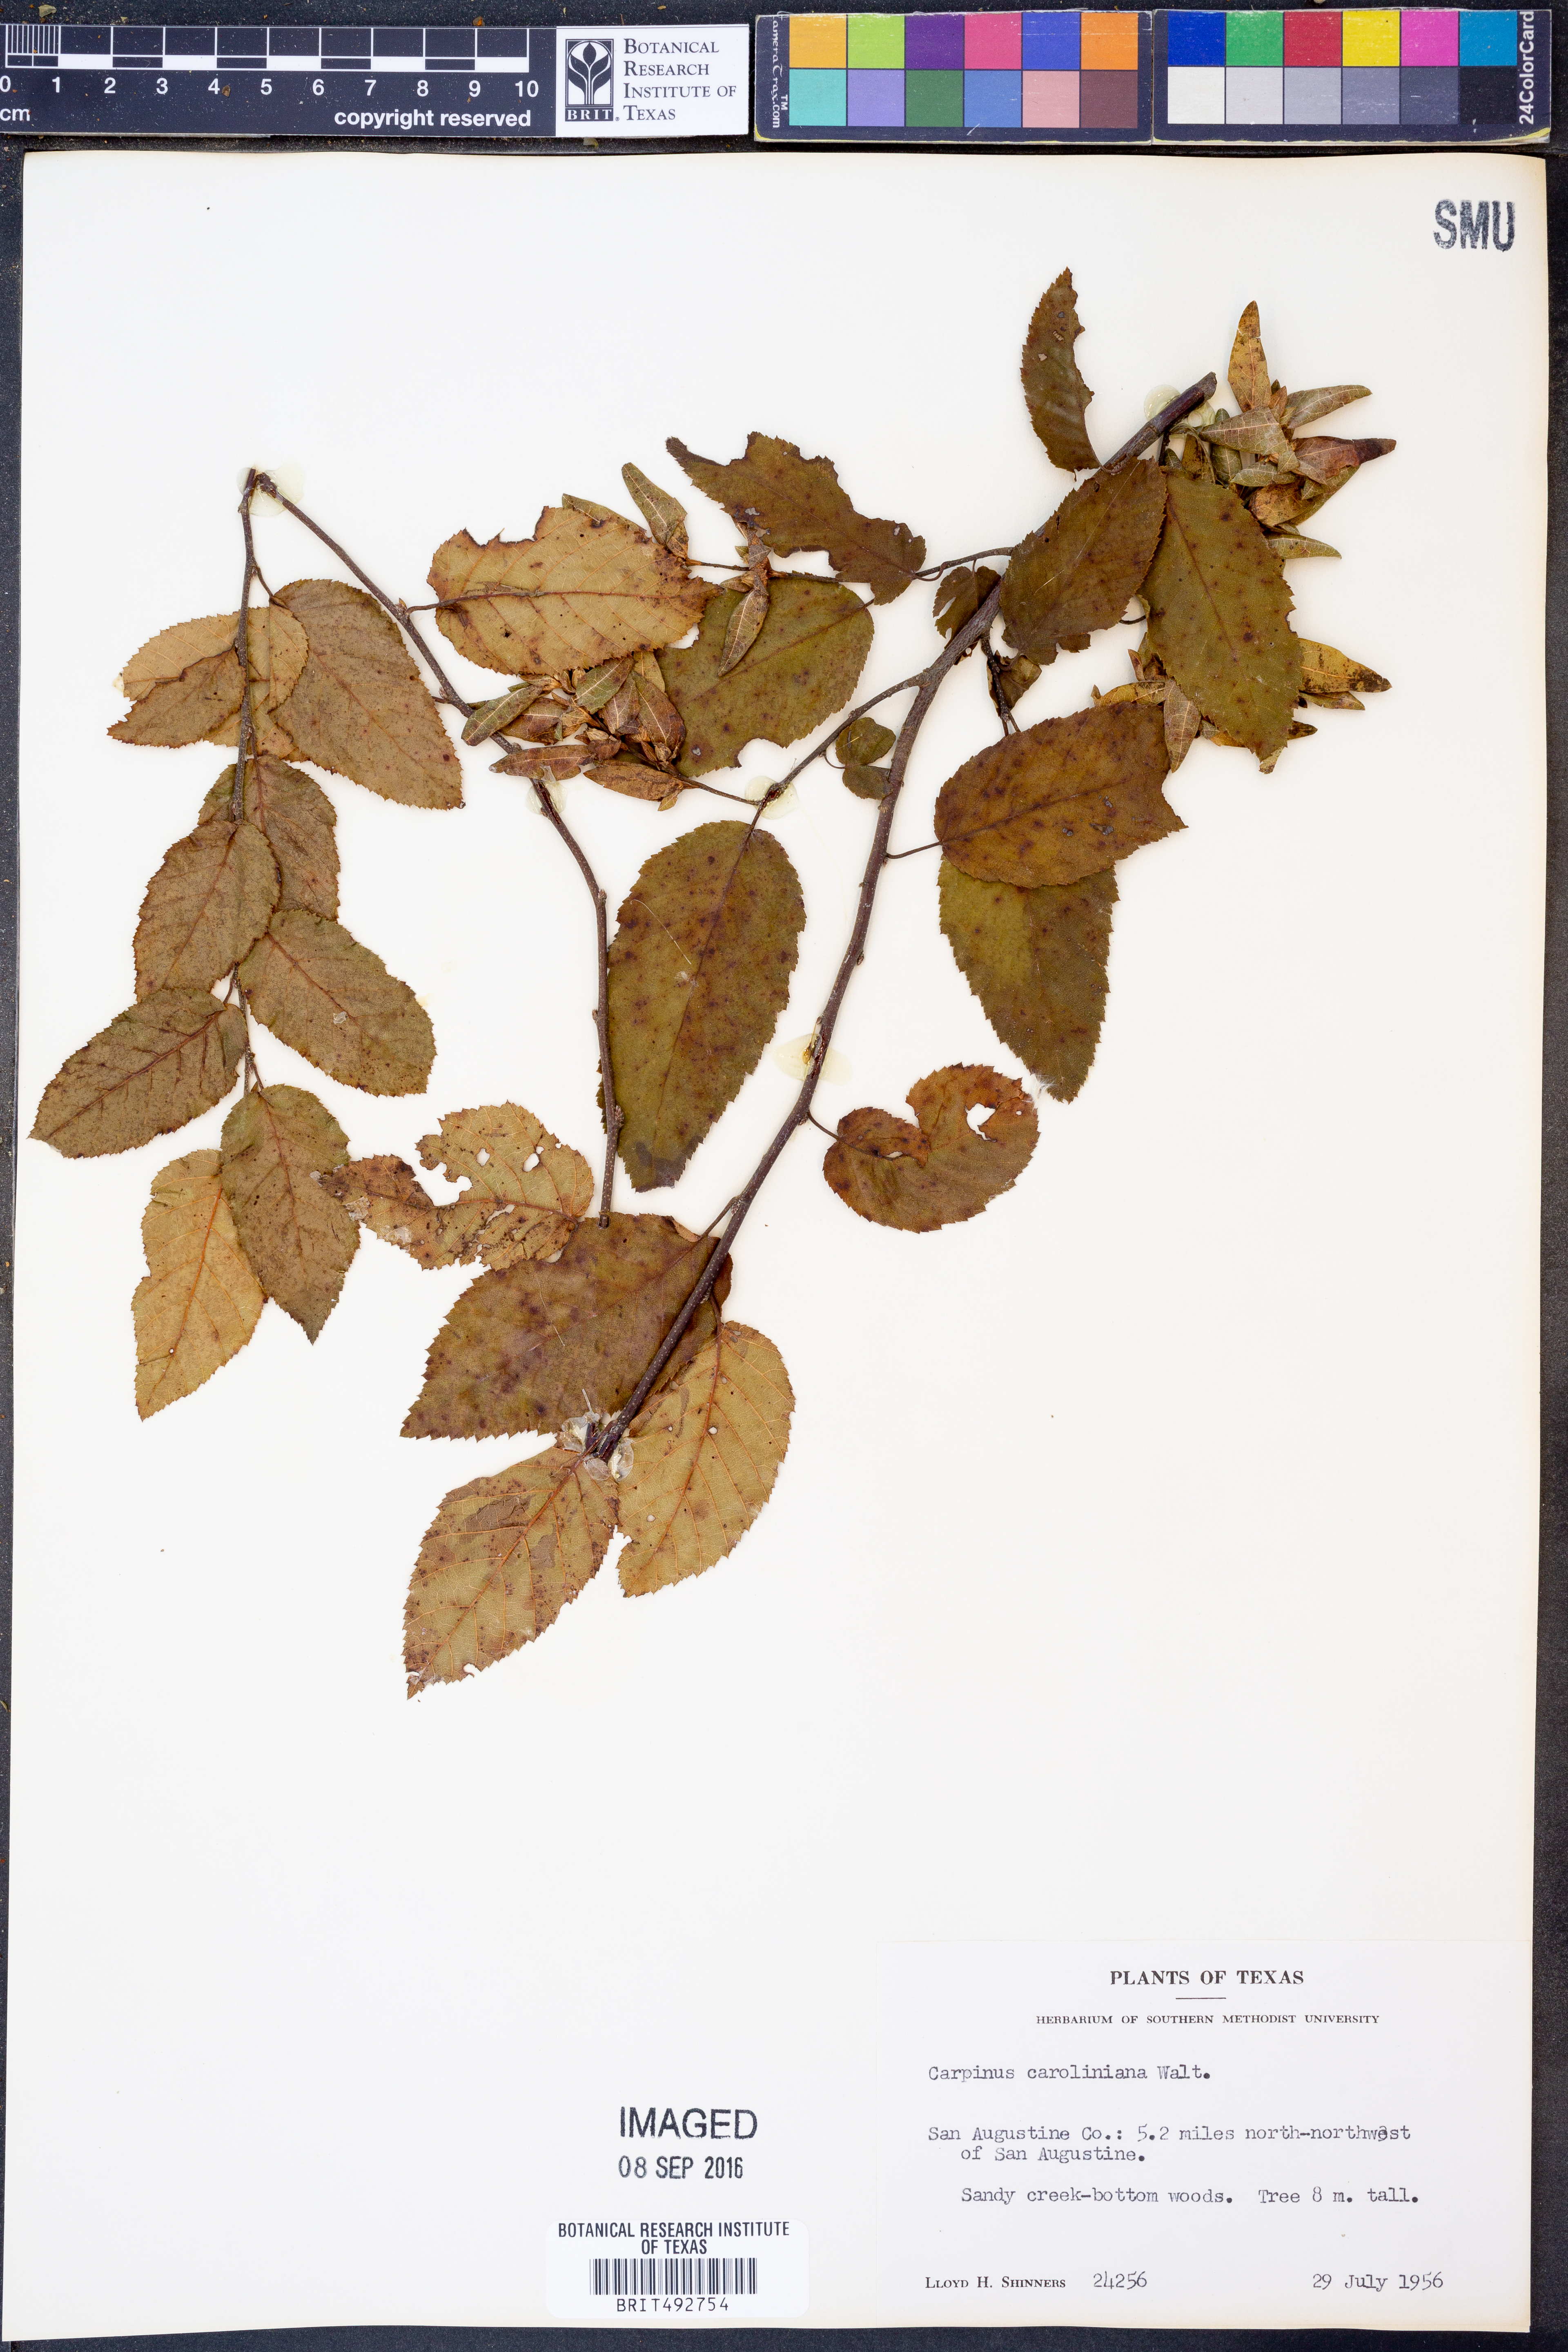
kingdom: Plantae
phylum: Tracheophyta
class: Magnoliopsida
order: Fagales
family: Betulaceae
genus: Carpinus
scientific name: Carpinus caroliniana
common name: American hornbeam
